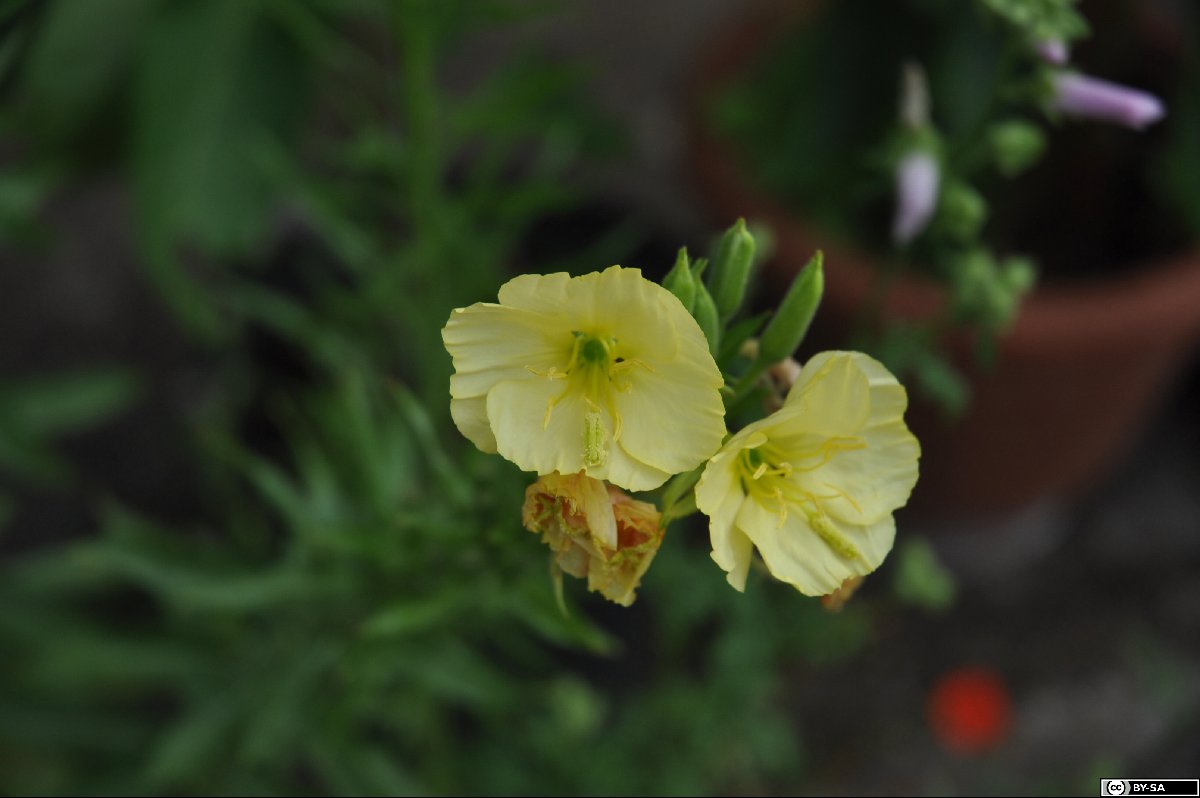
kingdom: Plantae
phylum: Tracheophyta
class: Magnoliopsida
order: Myrtales
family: Onagraceae
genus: Oenothera
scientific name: Oenothera biennis
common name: Common evening-primrose
